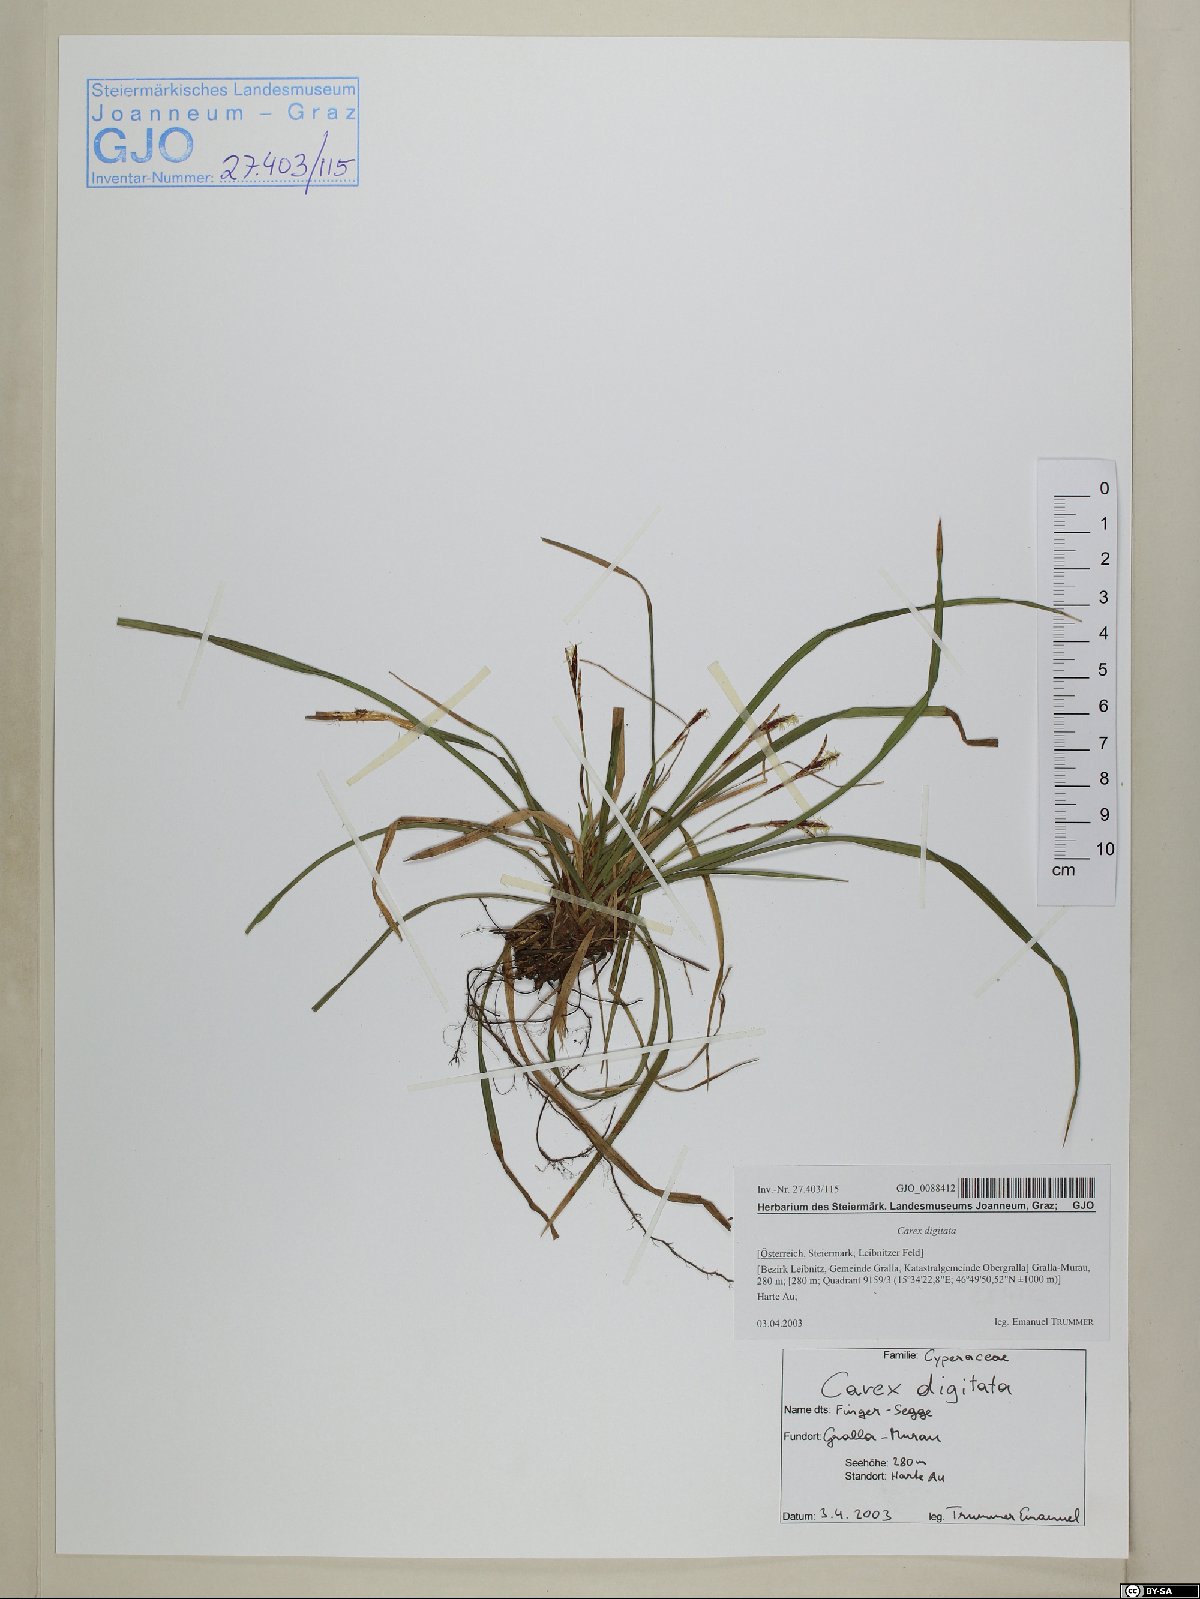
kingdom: Plantae
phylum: Tracheophyta
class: Liliopsida
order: Poales
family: Cyperaceae
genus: Carex
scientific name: Carex digitata
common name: Fingered sedge
